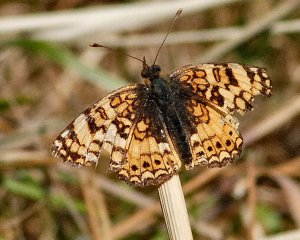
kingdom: Animalia
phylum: Arthropoda
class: Insecta
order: Lepidoptera
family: Nymphalidae
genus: Eresia
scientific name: Eresia aveyrona
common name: Mylitta Crescent
